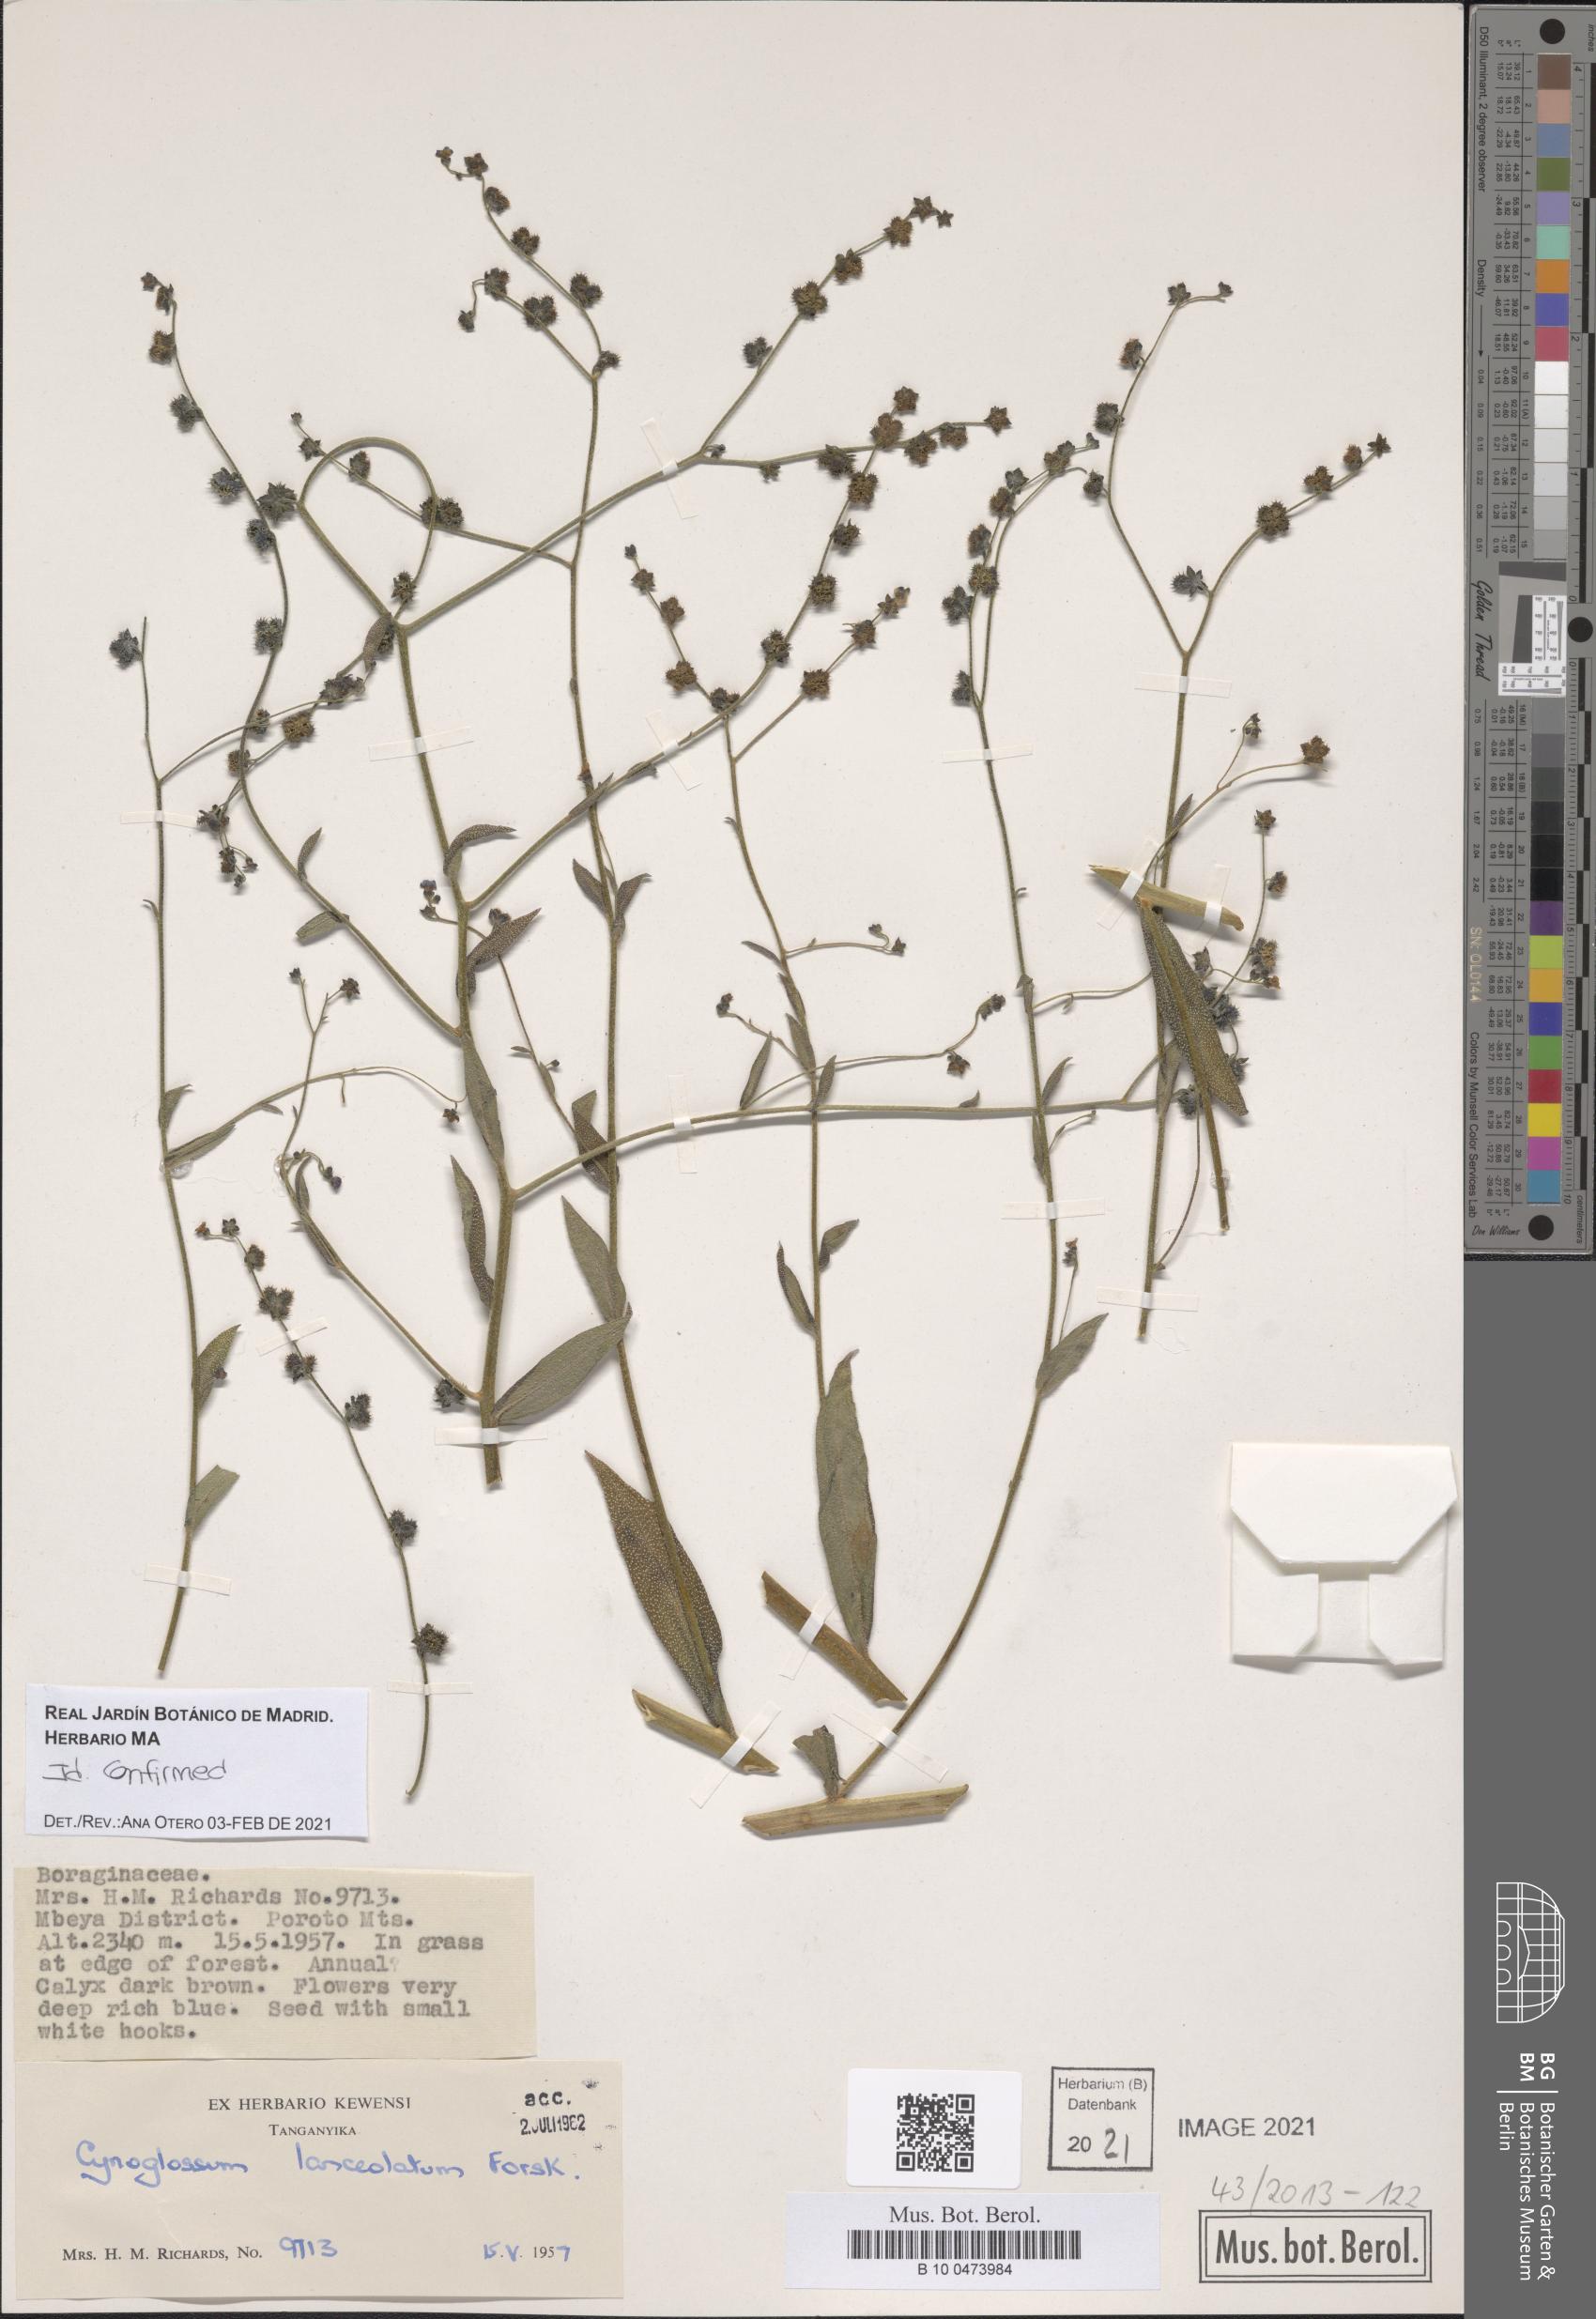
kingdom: Plantae
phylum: Tracheophyta
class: Magnoliopsida
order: Boraginales
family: Boraginaceae
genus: Paracynoglossum
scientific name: Paracynoglossum lanceolatum
